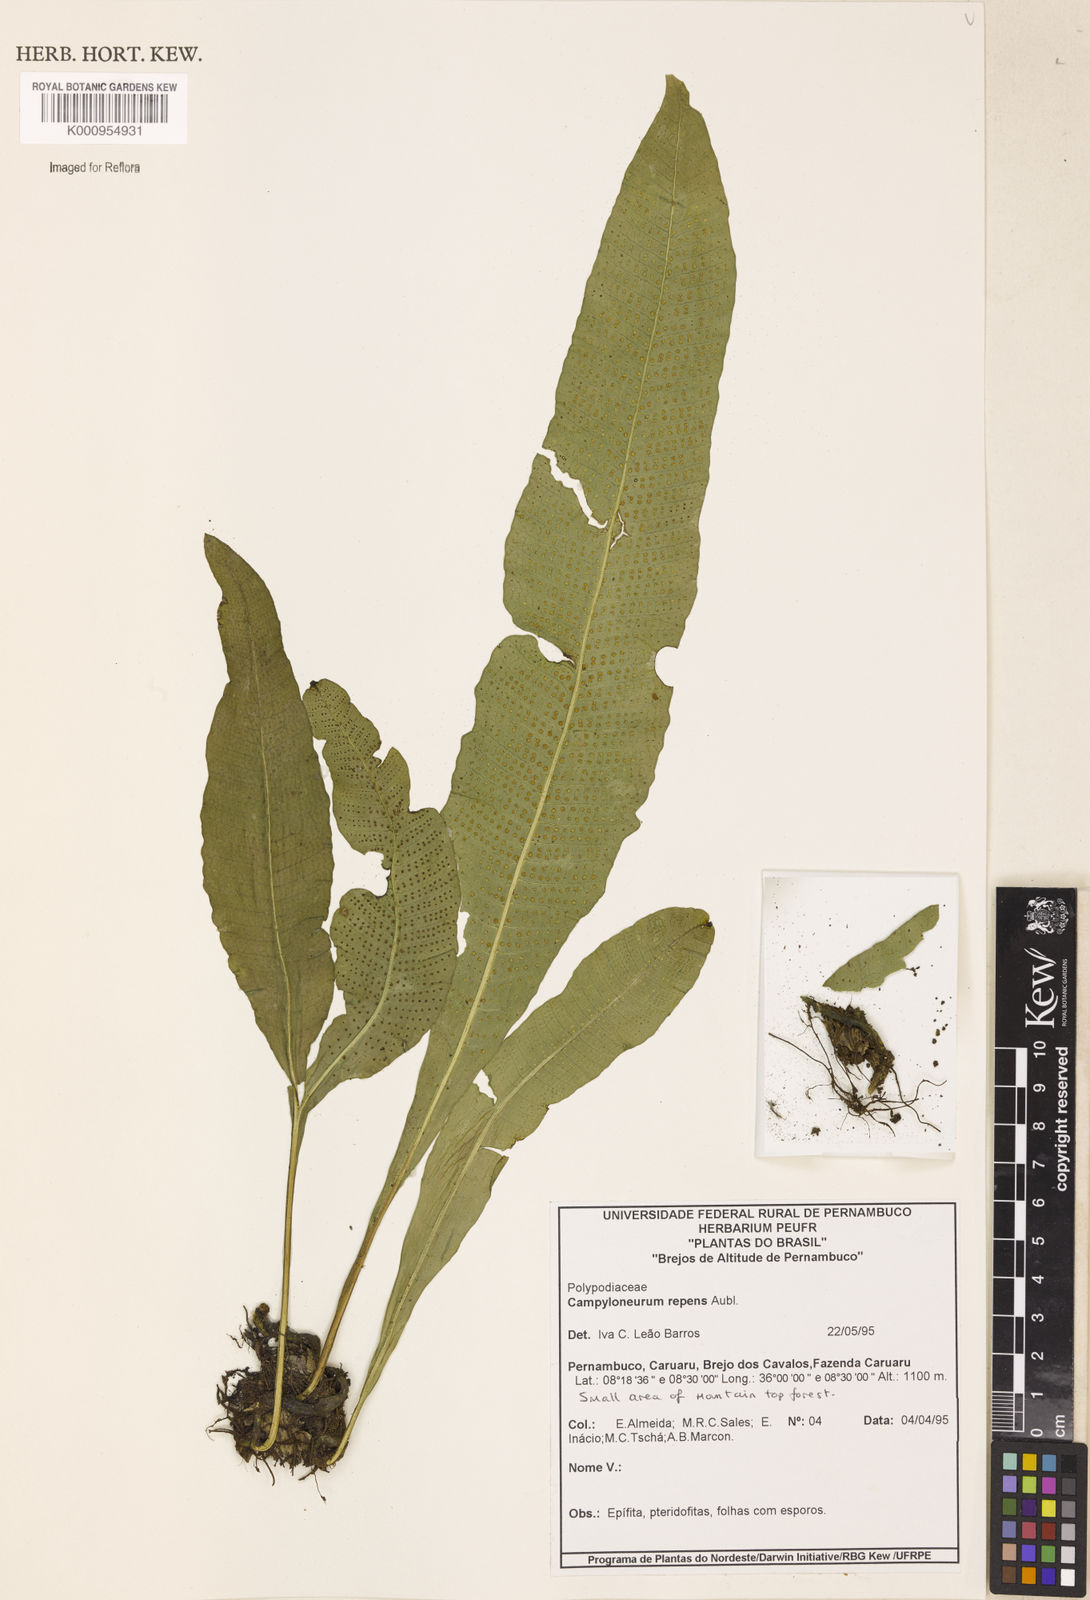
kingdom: Plantae
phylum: Tracheophyta
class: Polypodiopsida
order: Polypodiales
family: Polypodiaceae
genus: Campyloneurum
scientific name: Campyloneurum repens
